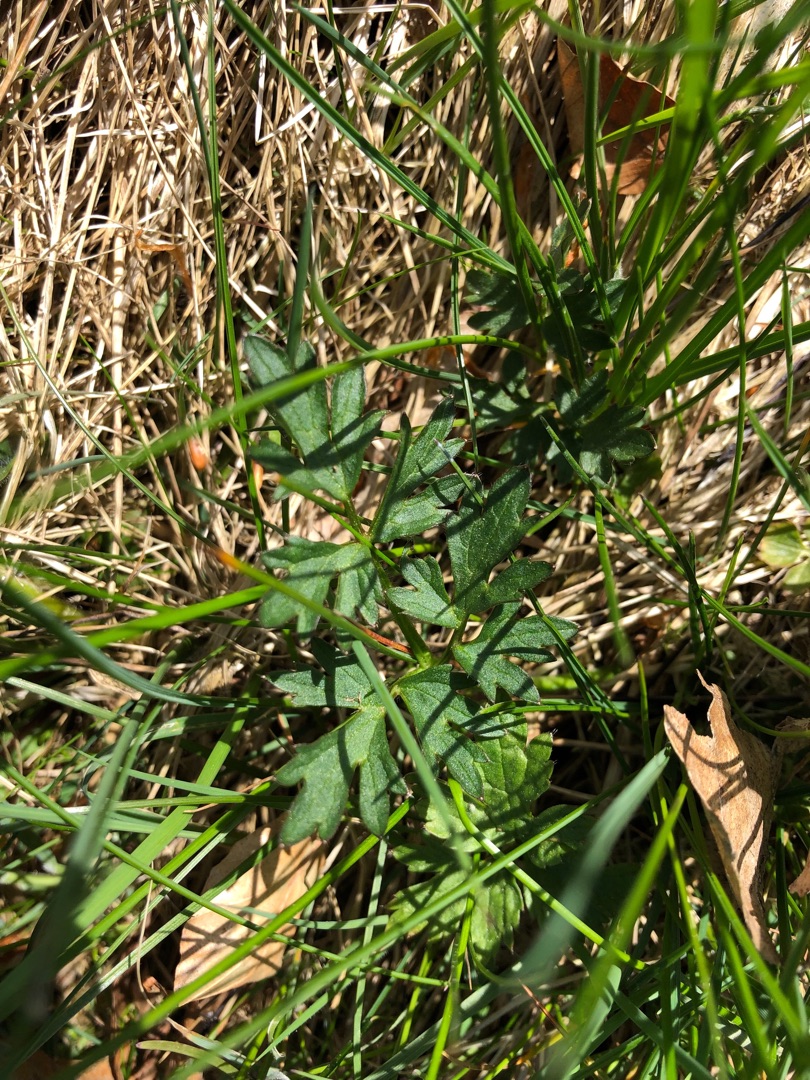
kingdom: Plantae
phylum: Tracheophyta
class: Magnoliopsida
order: Ranunculales
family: Ranunculaceae
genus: Ranunculus
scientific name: Ranunculus repens
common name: Lav ranunkel
